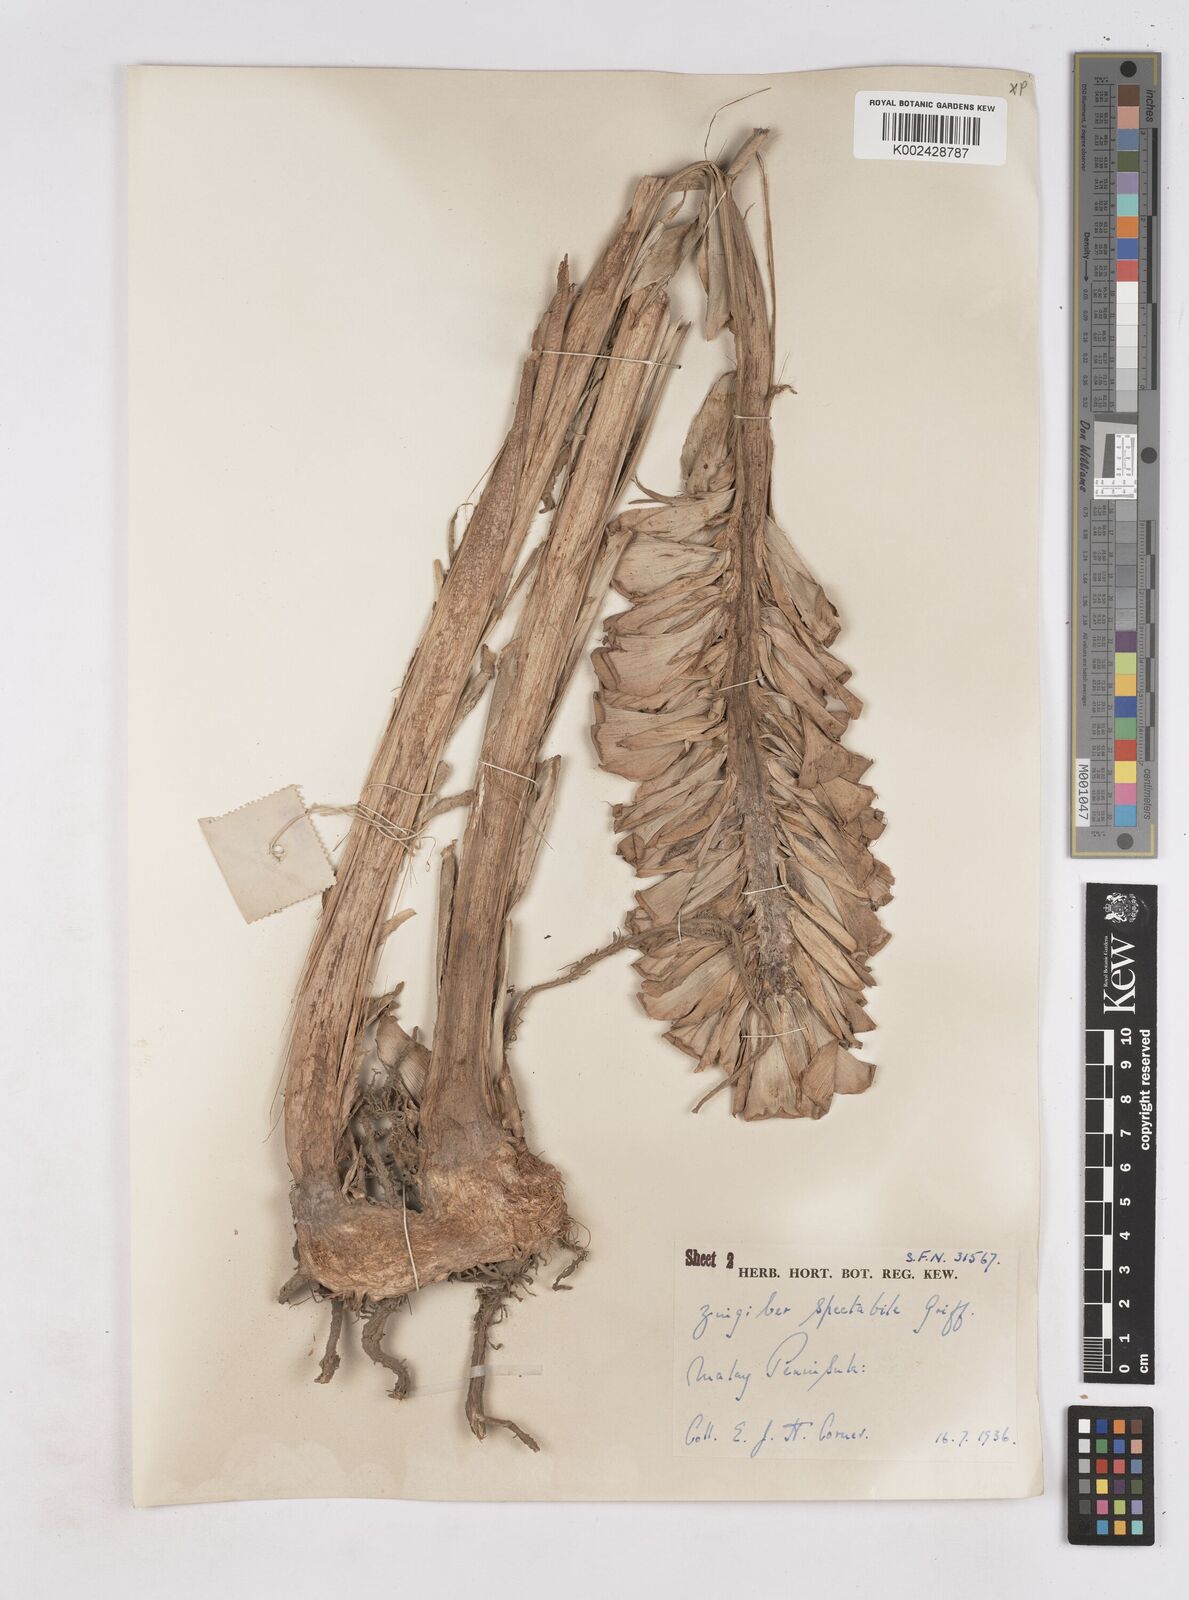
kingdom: Plantae
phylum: Tracheophyta
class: Liliopsida
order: Zingiberales
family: Zingiberaceae
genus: Zingiber
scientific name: Zingiber spectabile
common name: Beehive ginger
